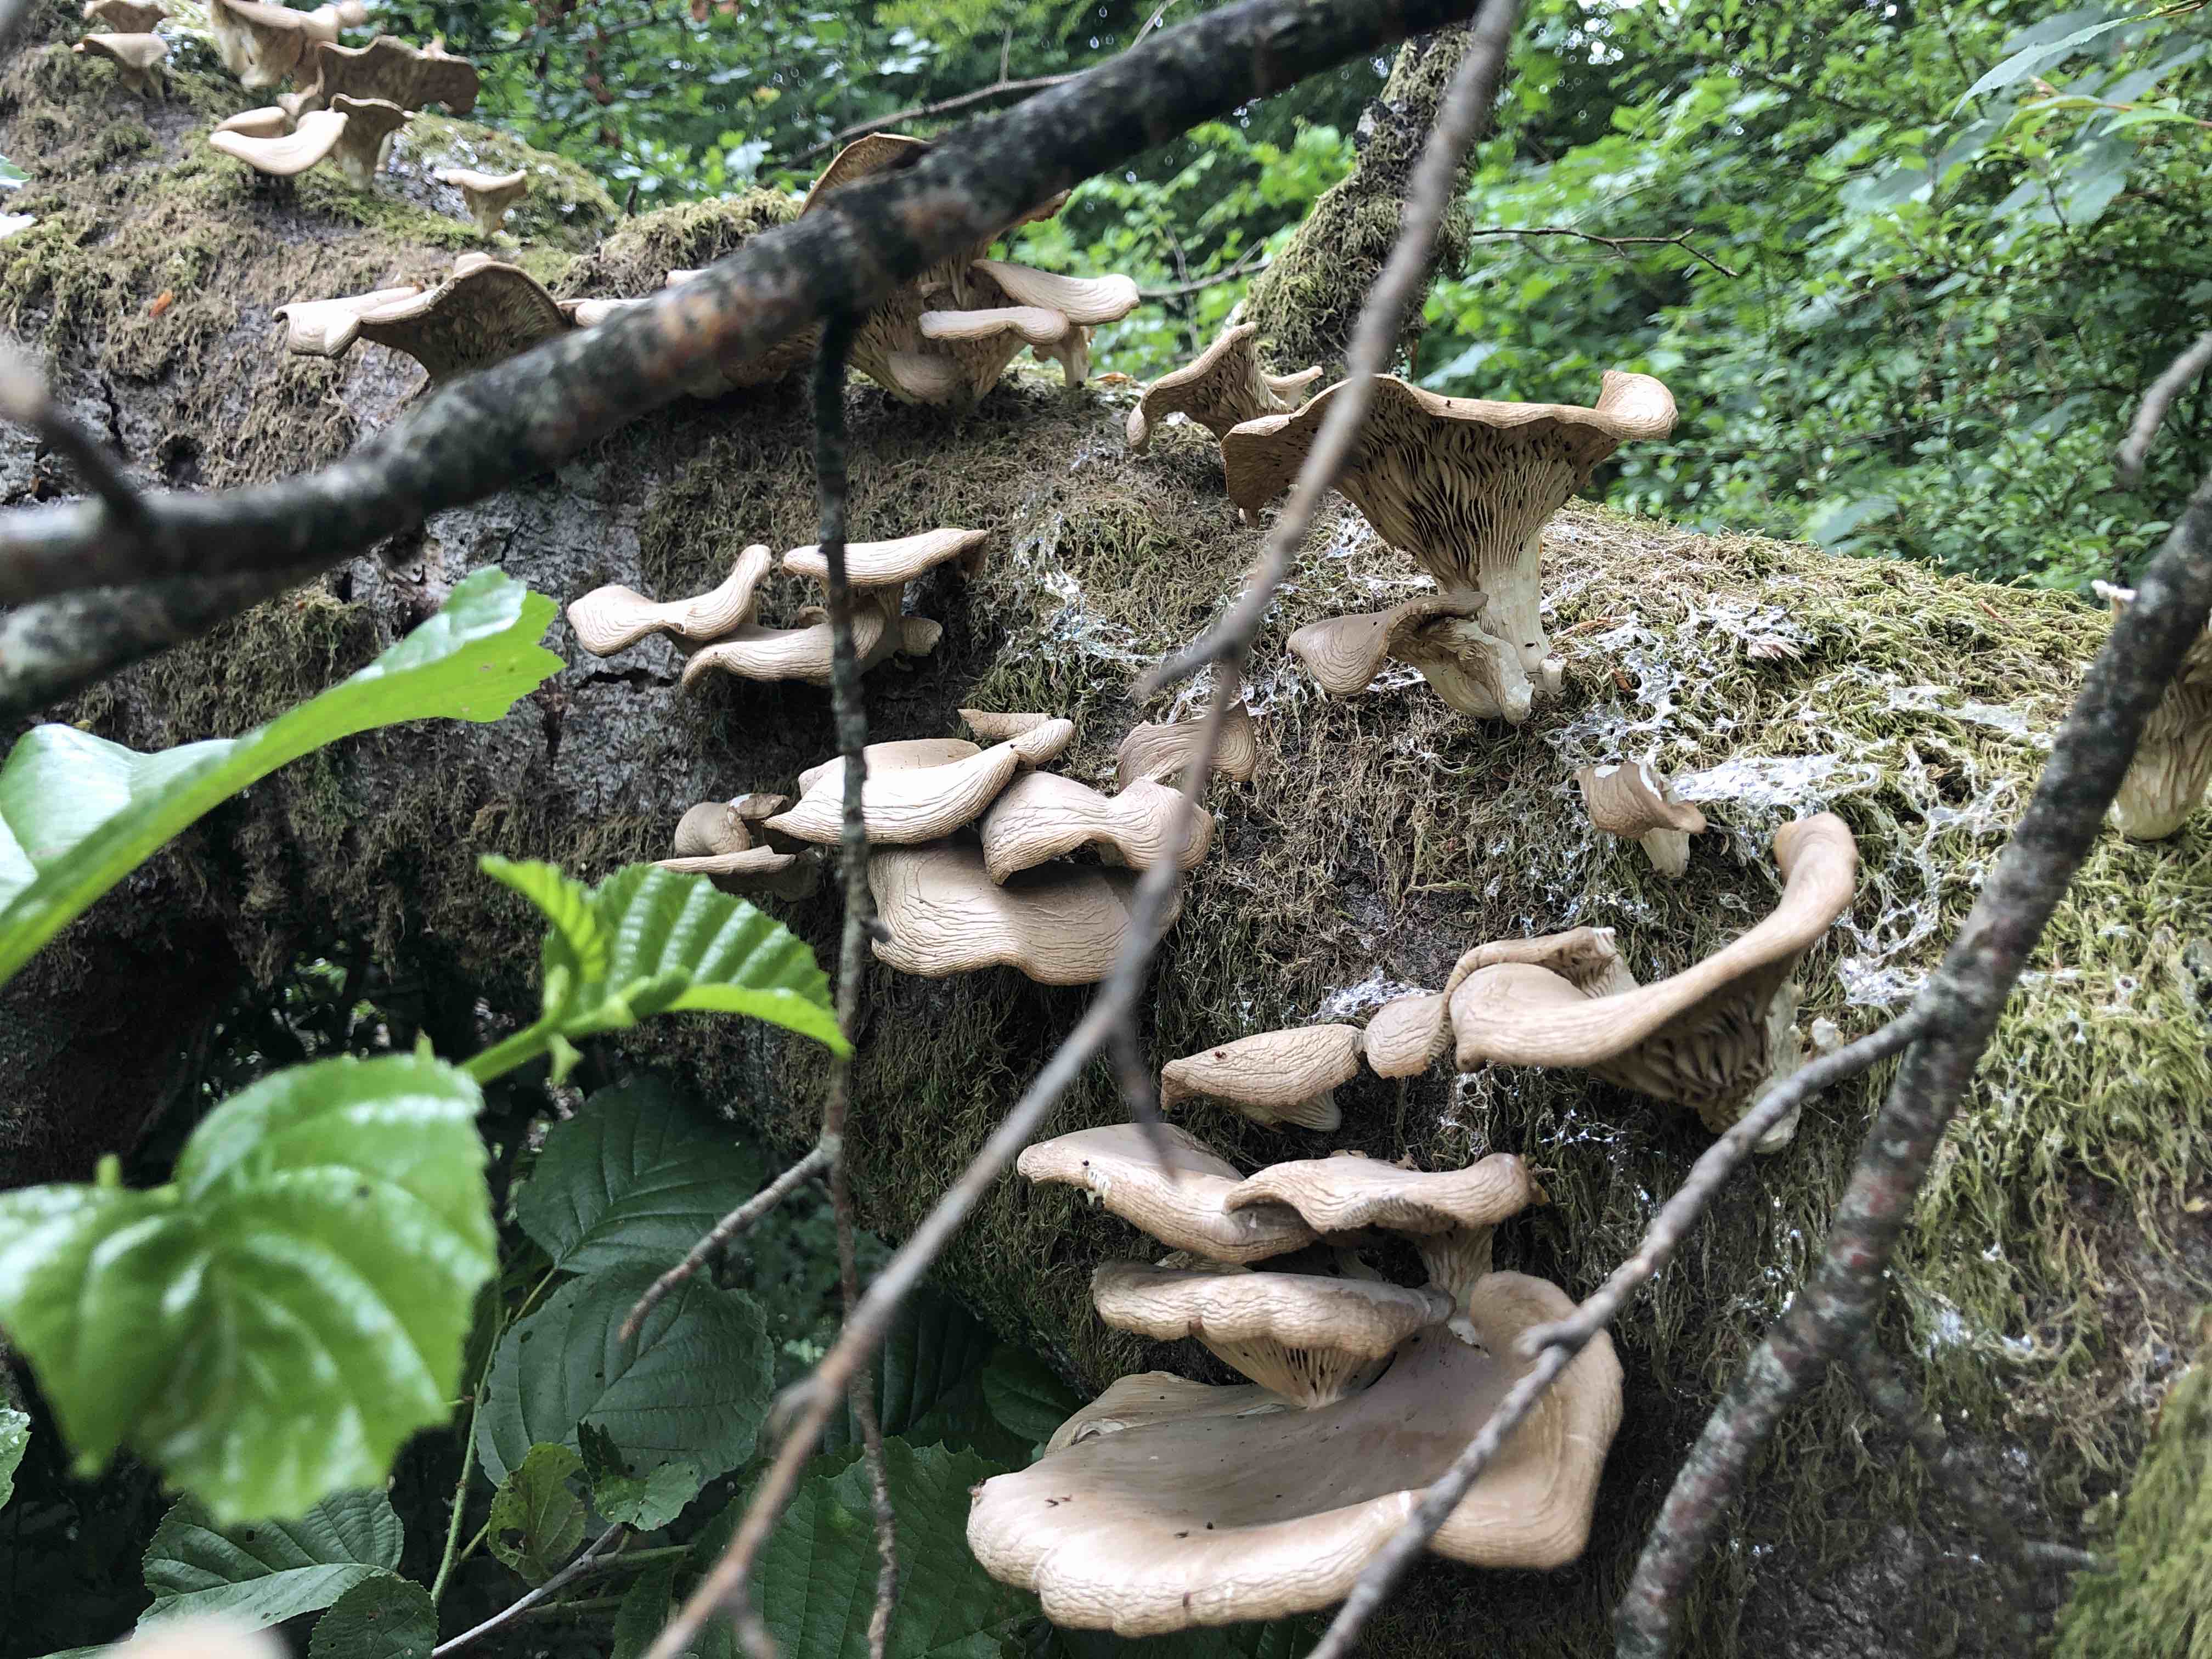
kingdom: Fungi
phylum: Basidiomycota
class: Agaricomycetes
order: Agaricales
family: Pleurotaceae
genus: Pleurotus
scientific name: Pleurotus pulmonarius
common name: sommer-østershat
